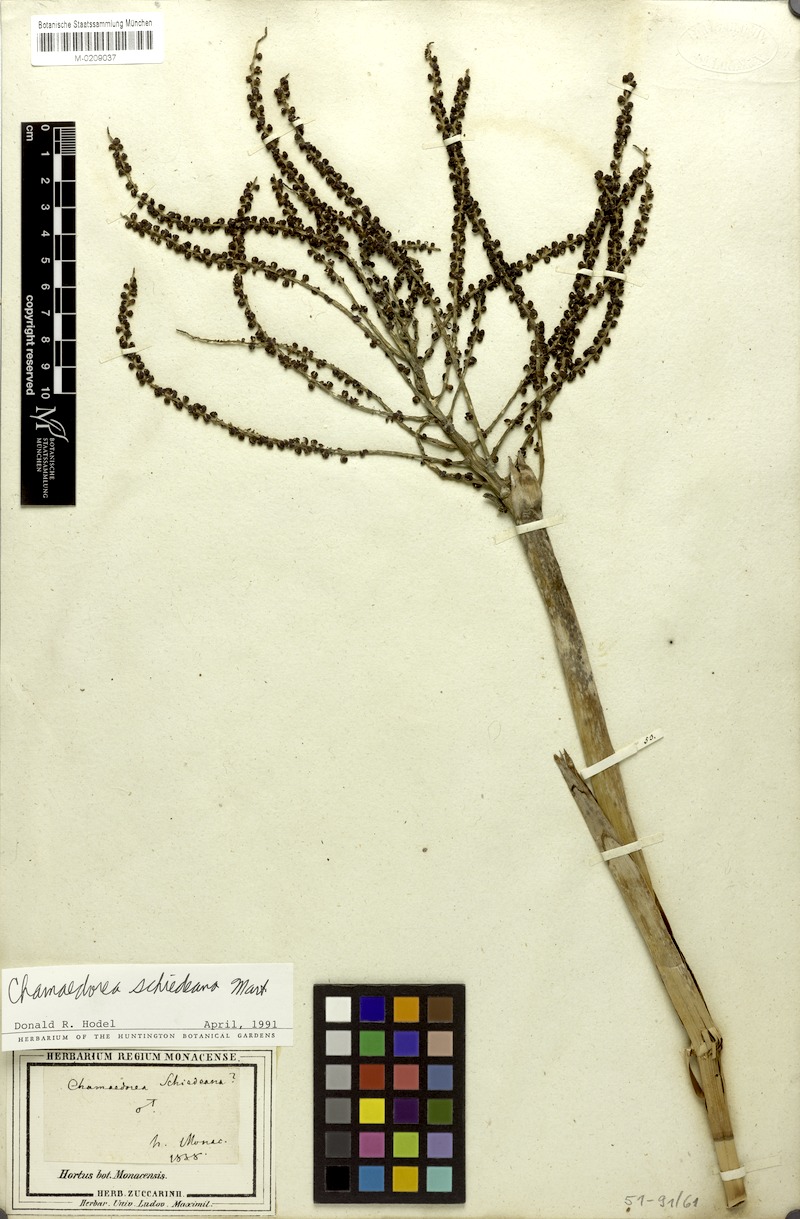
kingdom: Plantae
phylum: Tracheophyta
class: Liliopsida
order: Arecales
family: Arecaceae
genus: Chamaedorea
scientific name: Chamaedorea schiedeana
